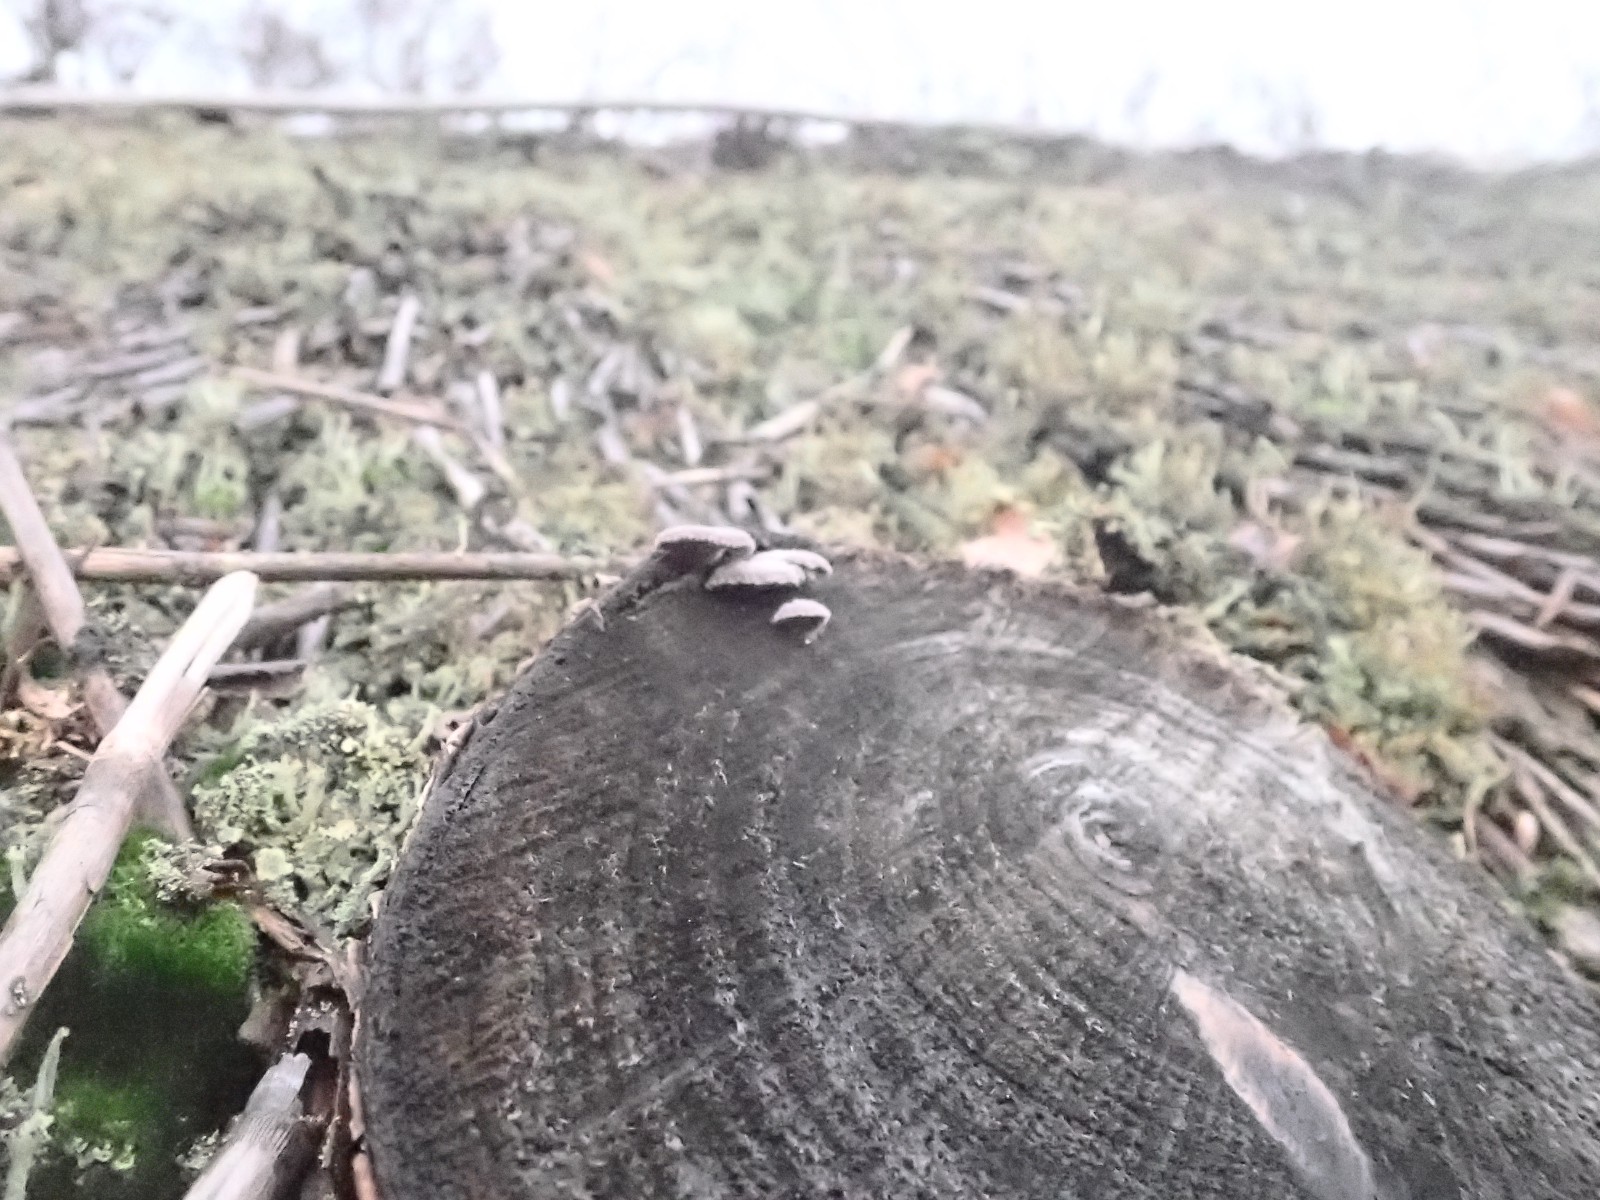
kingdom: Fungi
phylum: Basidiomycota
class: Agaricomycetes
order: Agaricales
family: Schizophyllaceae
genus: Schizophyllum
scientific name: Schizophyllum commune
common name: kløvblad
